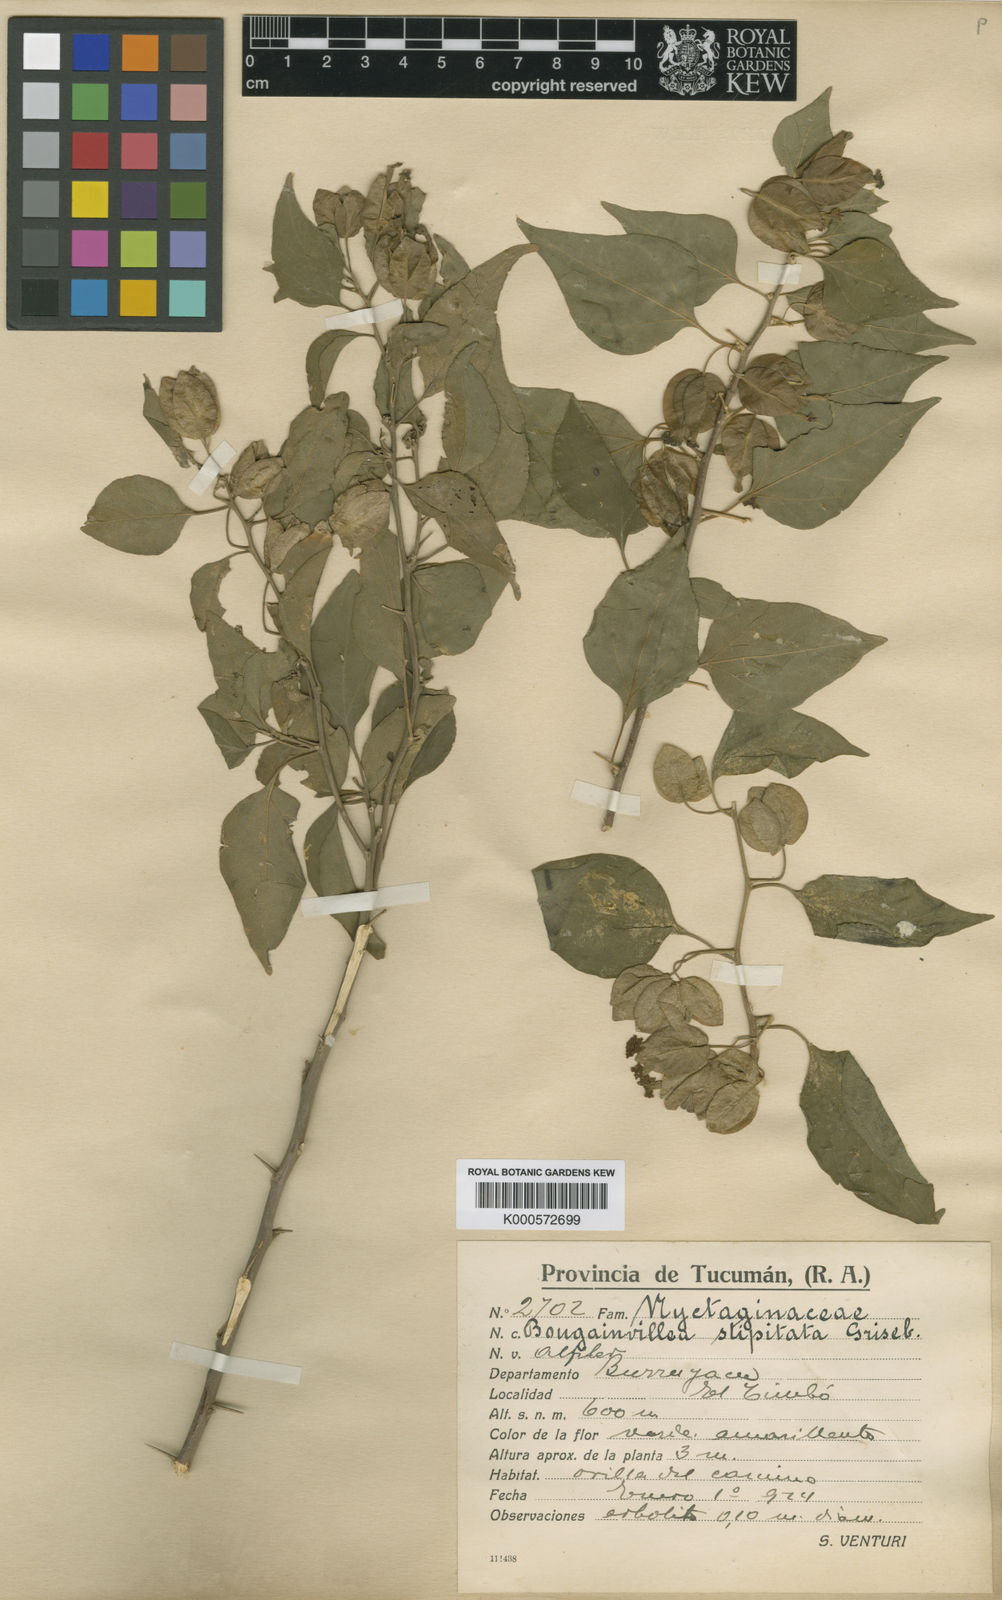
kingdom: Plantae
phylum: Tracheophyta
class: Magnoliopsida
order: Caryophyllales
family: Nyctaginaceae
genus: Bougainvillea
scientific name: Bougainvillea stipitata
